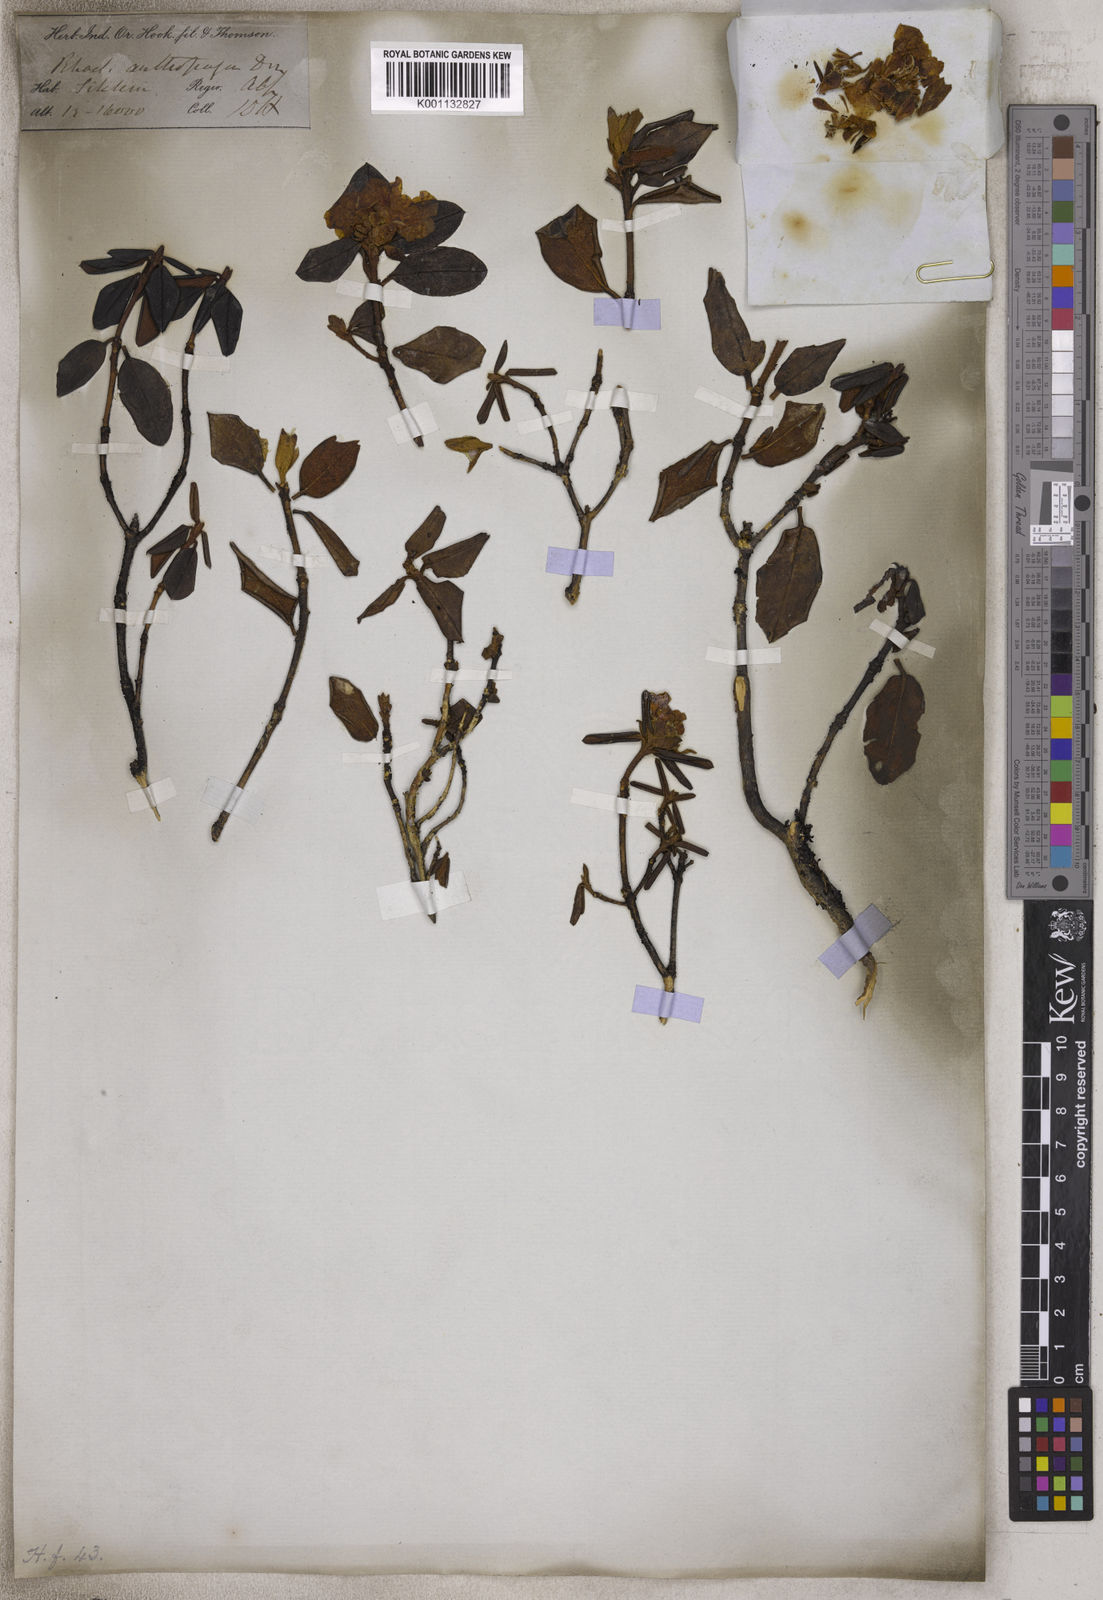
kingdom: Plantae
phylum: Tracheophyta
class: Magnoliopsida
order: Ericales
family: Ericaceae
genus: Rhododendron
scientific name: Rhododendron anthopogon
